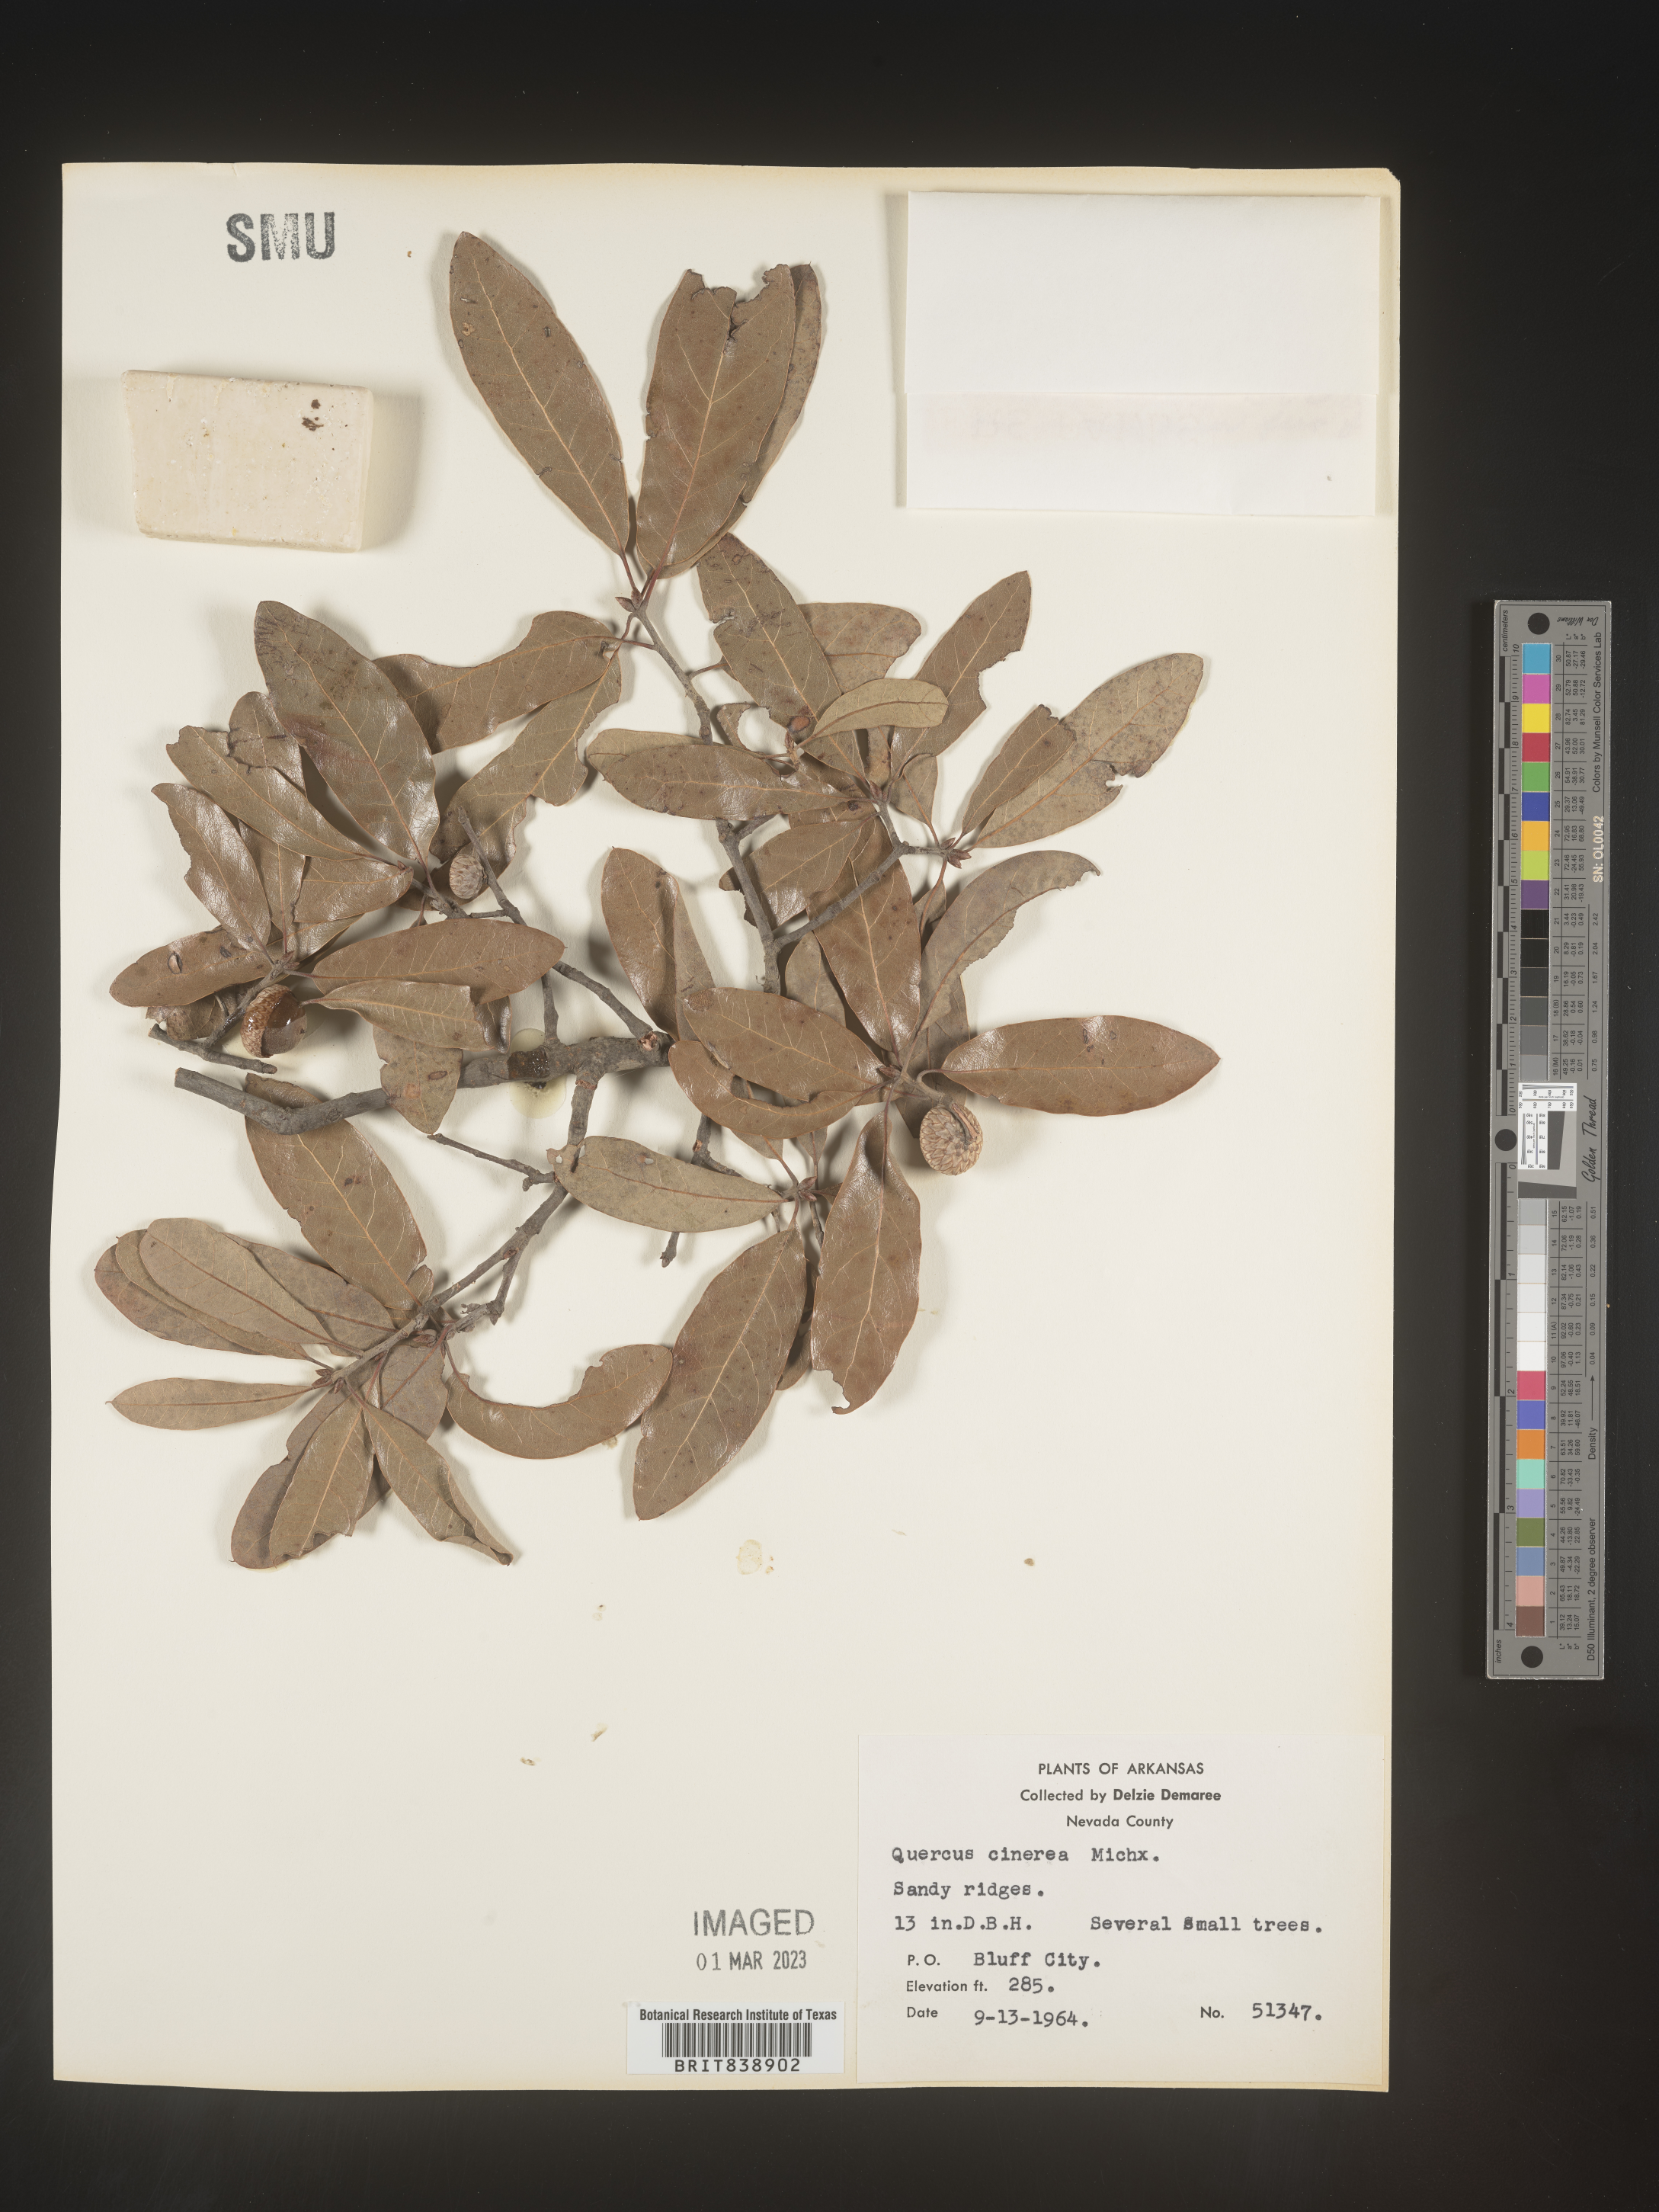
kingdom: Plantae
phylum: Tracheophyta
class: Magnoliopsida
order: Fagales
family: Fagaceae
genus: Quercus
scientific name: Quercus incana
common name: Bluejack oak
